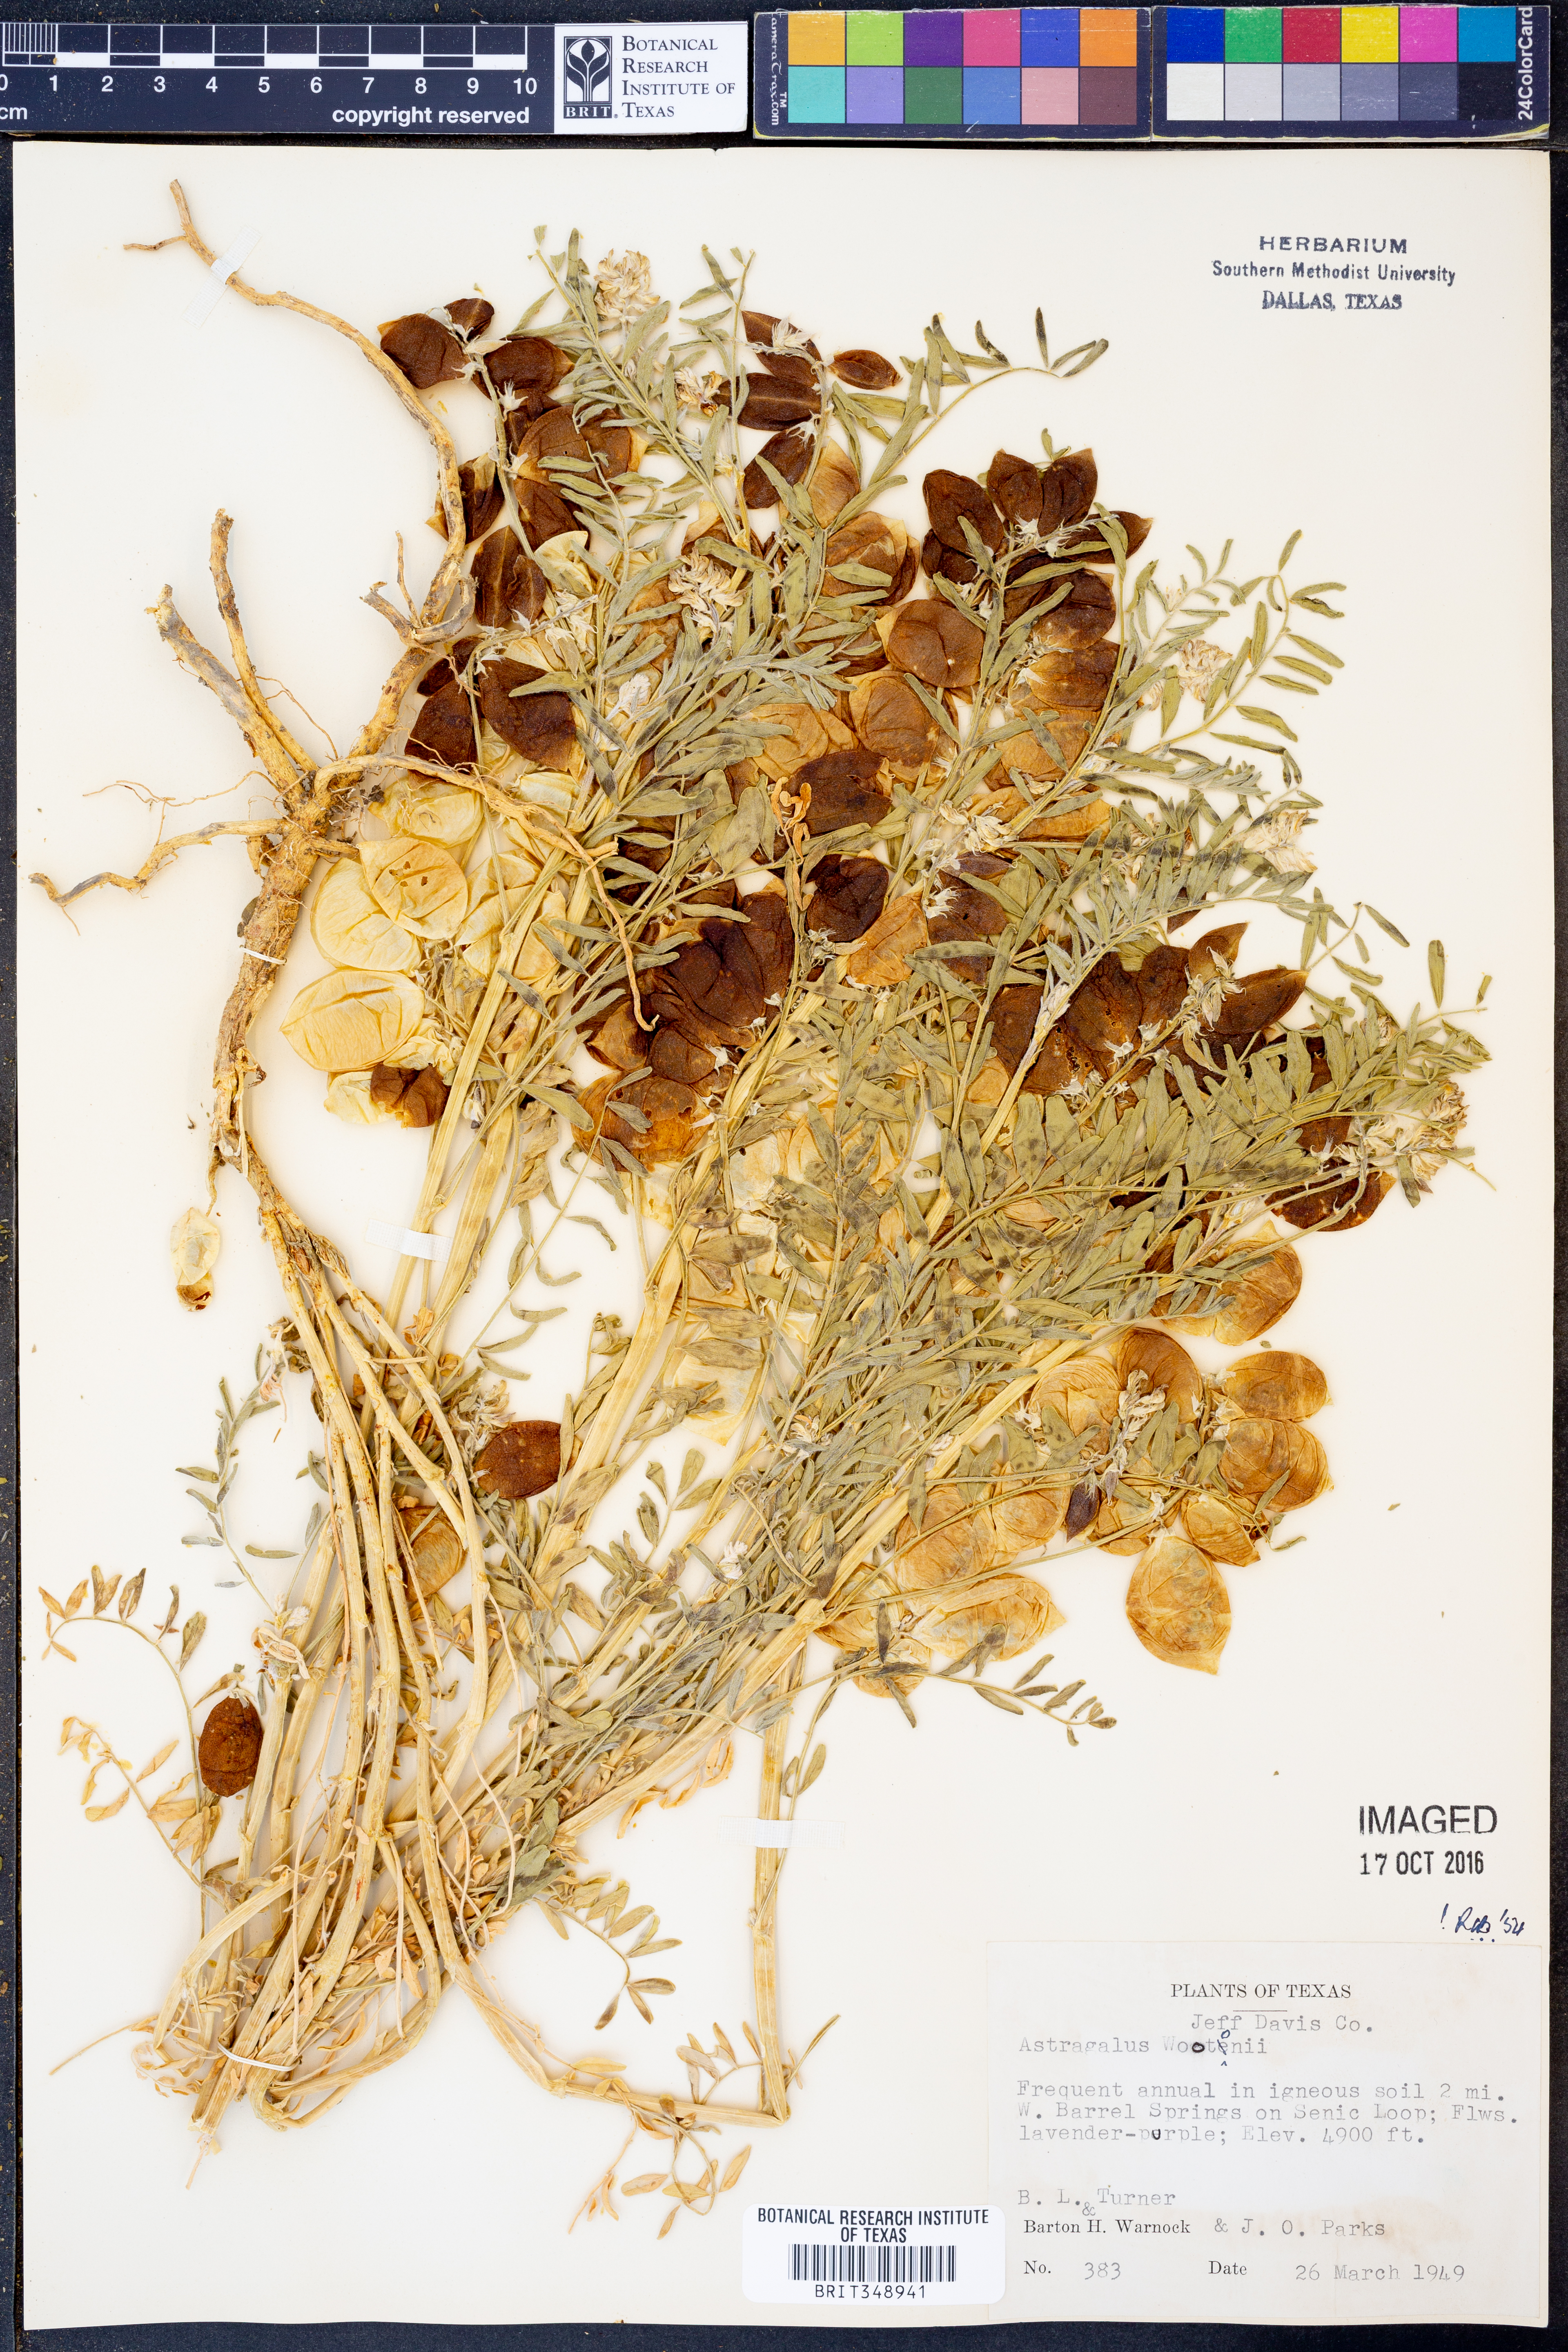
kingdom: Plantae
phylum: Tracheophyta
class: Magnoliopsida
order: Fabales
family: Fabaceae
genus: Astragalus
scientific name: Astragalus wootonii
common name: Wooton's milk-vetch
